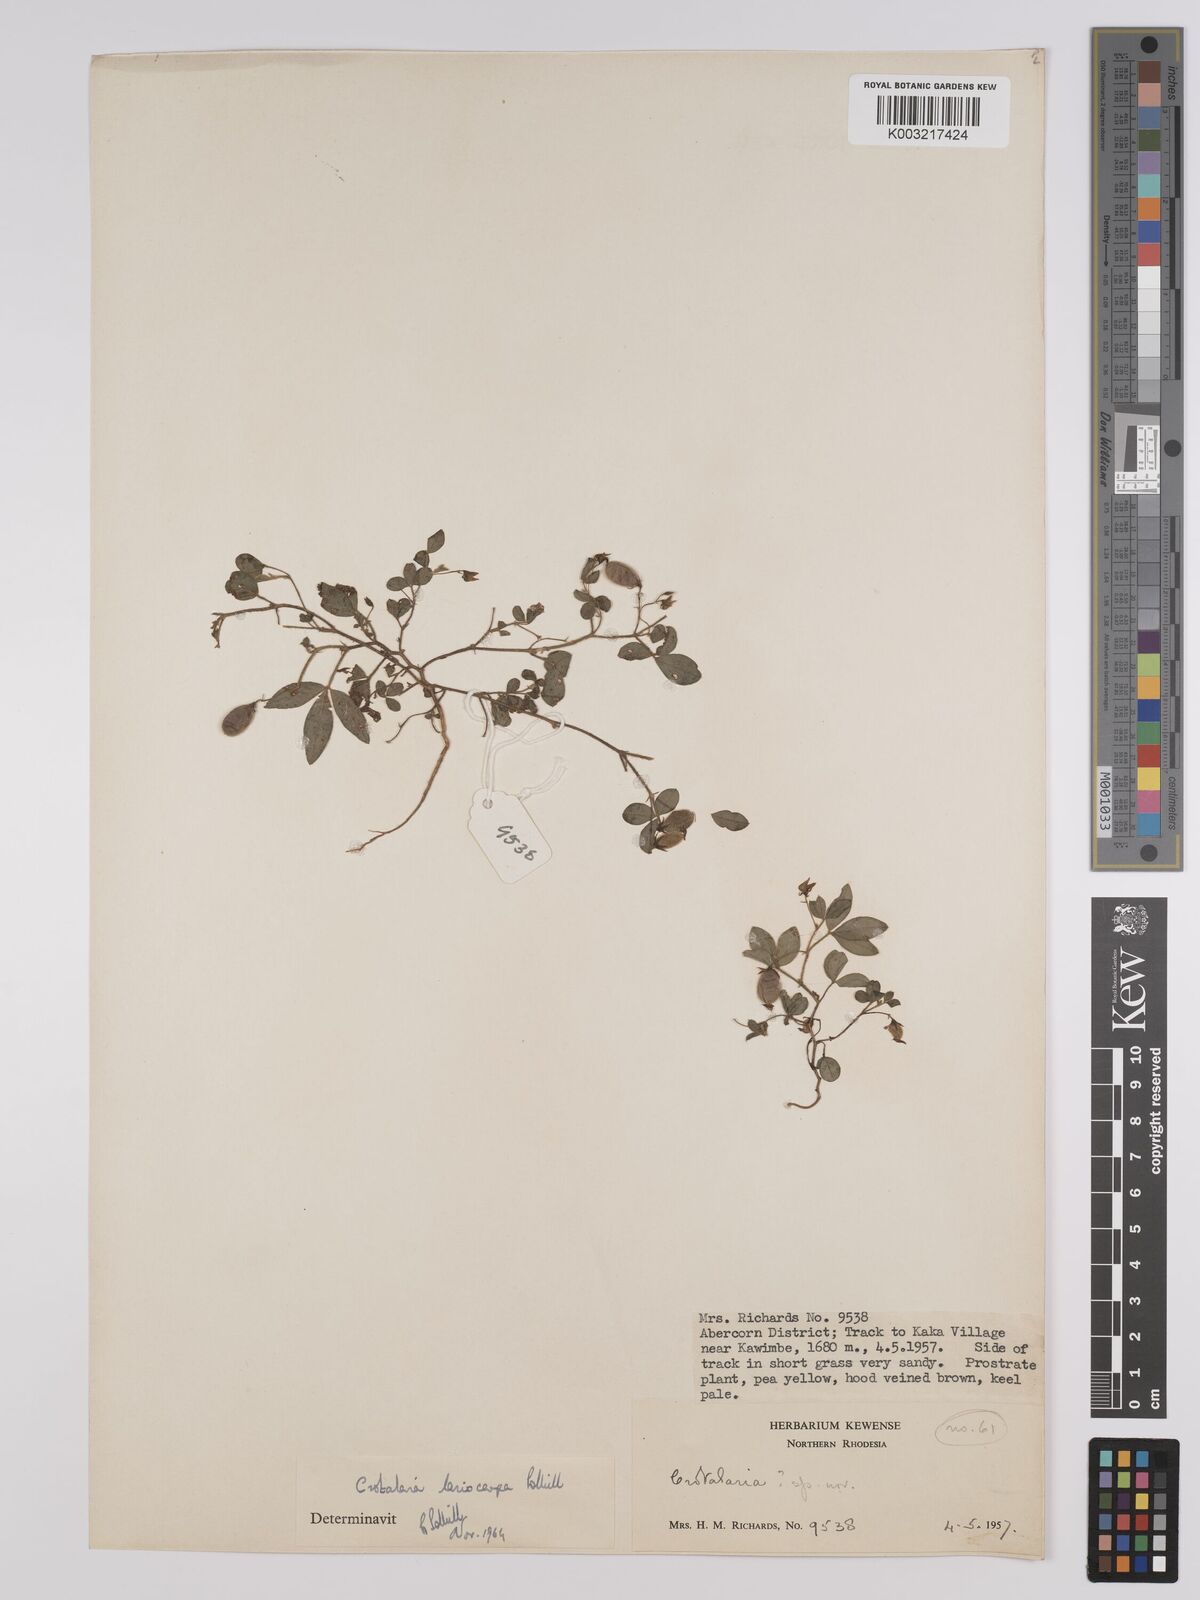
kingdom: Plantae
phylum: Tracheophyta
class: Magnoliopsida
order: Fabales
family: Fabaceae
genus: Crotalaria
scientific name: Crotalaria lasiocarpa
